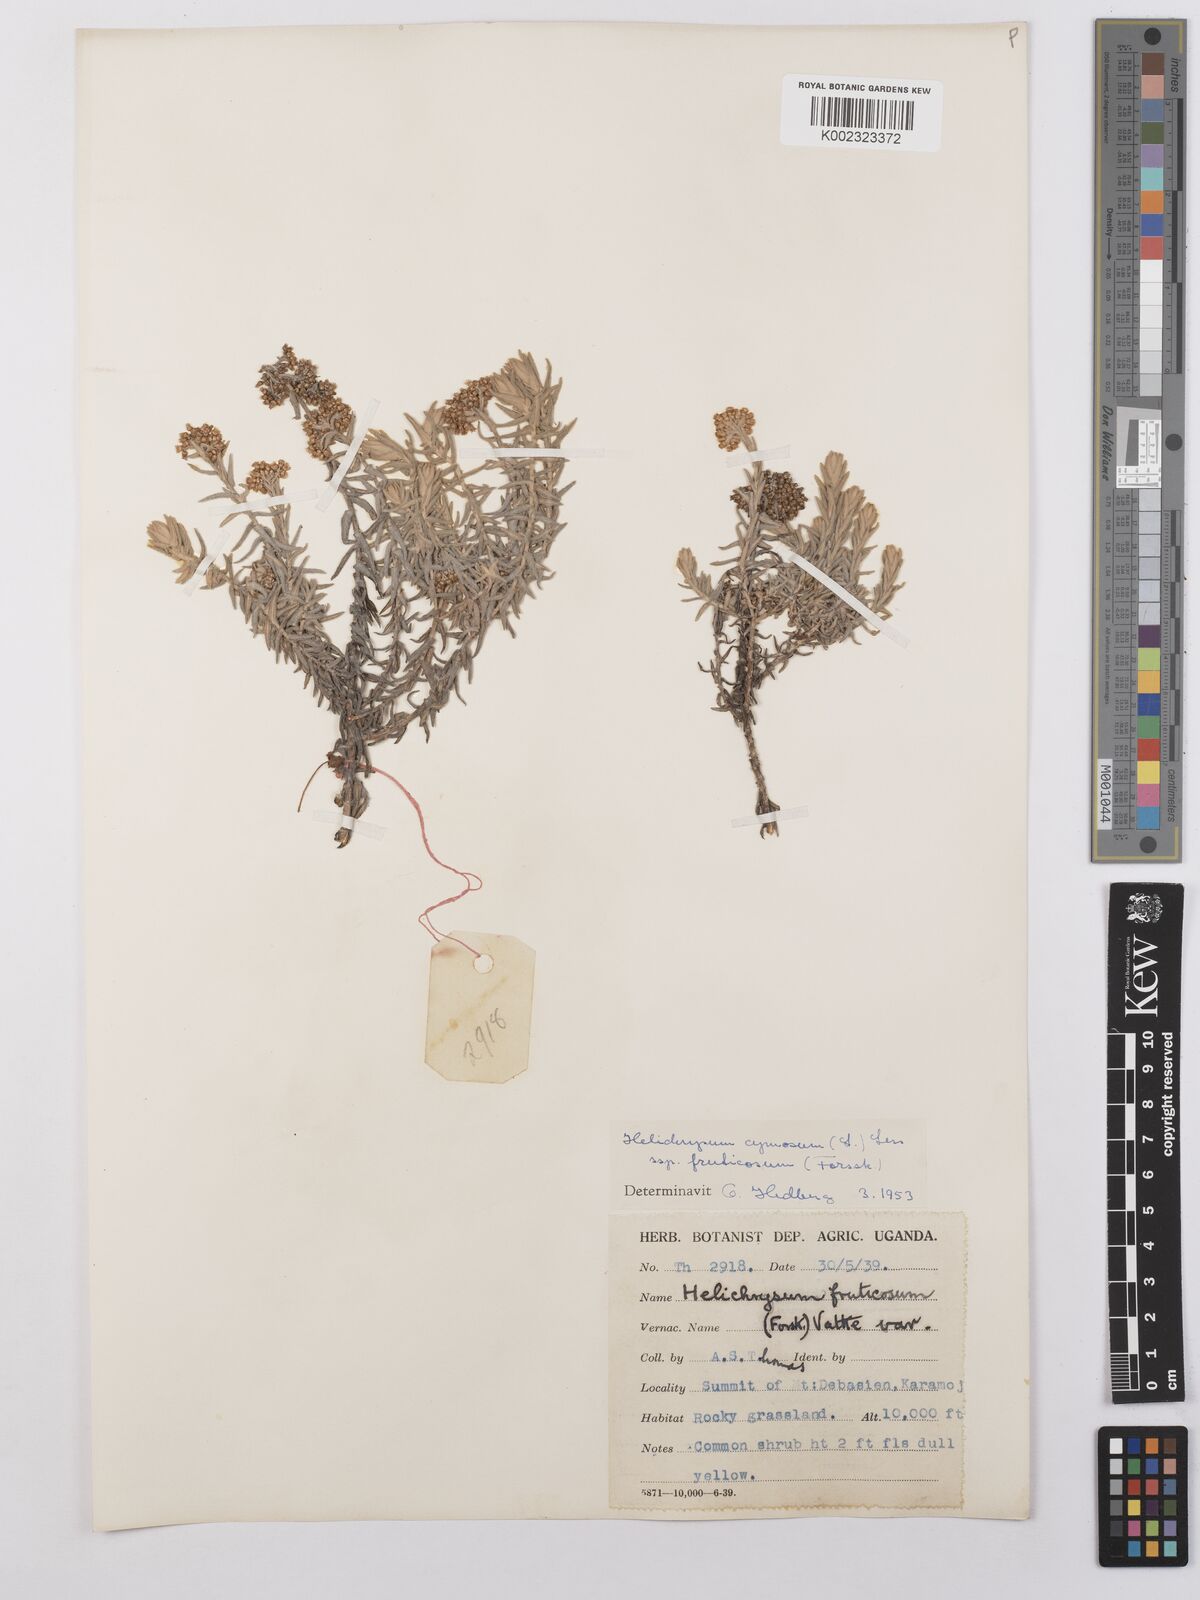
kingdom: Plantae
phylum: Tracheophyta
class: Magnoliopsida
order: Asterales
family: Asteraceae
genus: Helichrysum
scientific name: Helichrysum forskahlii
